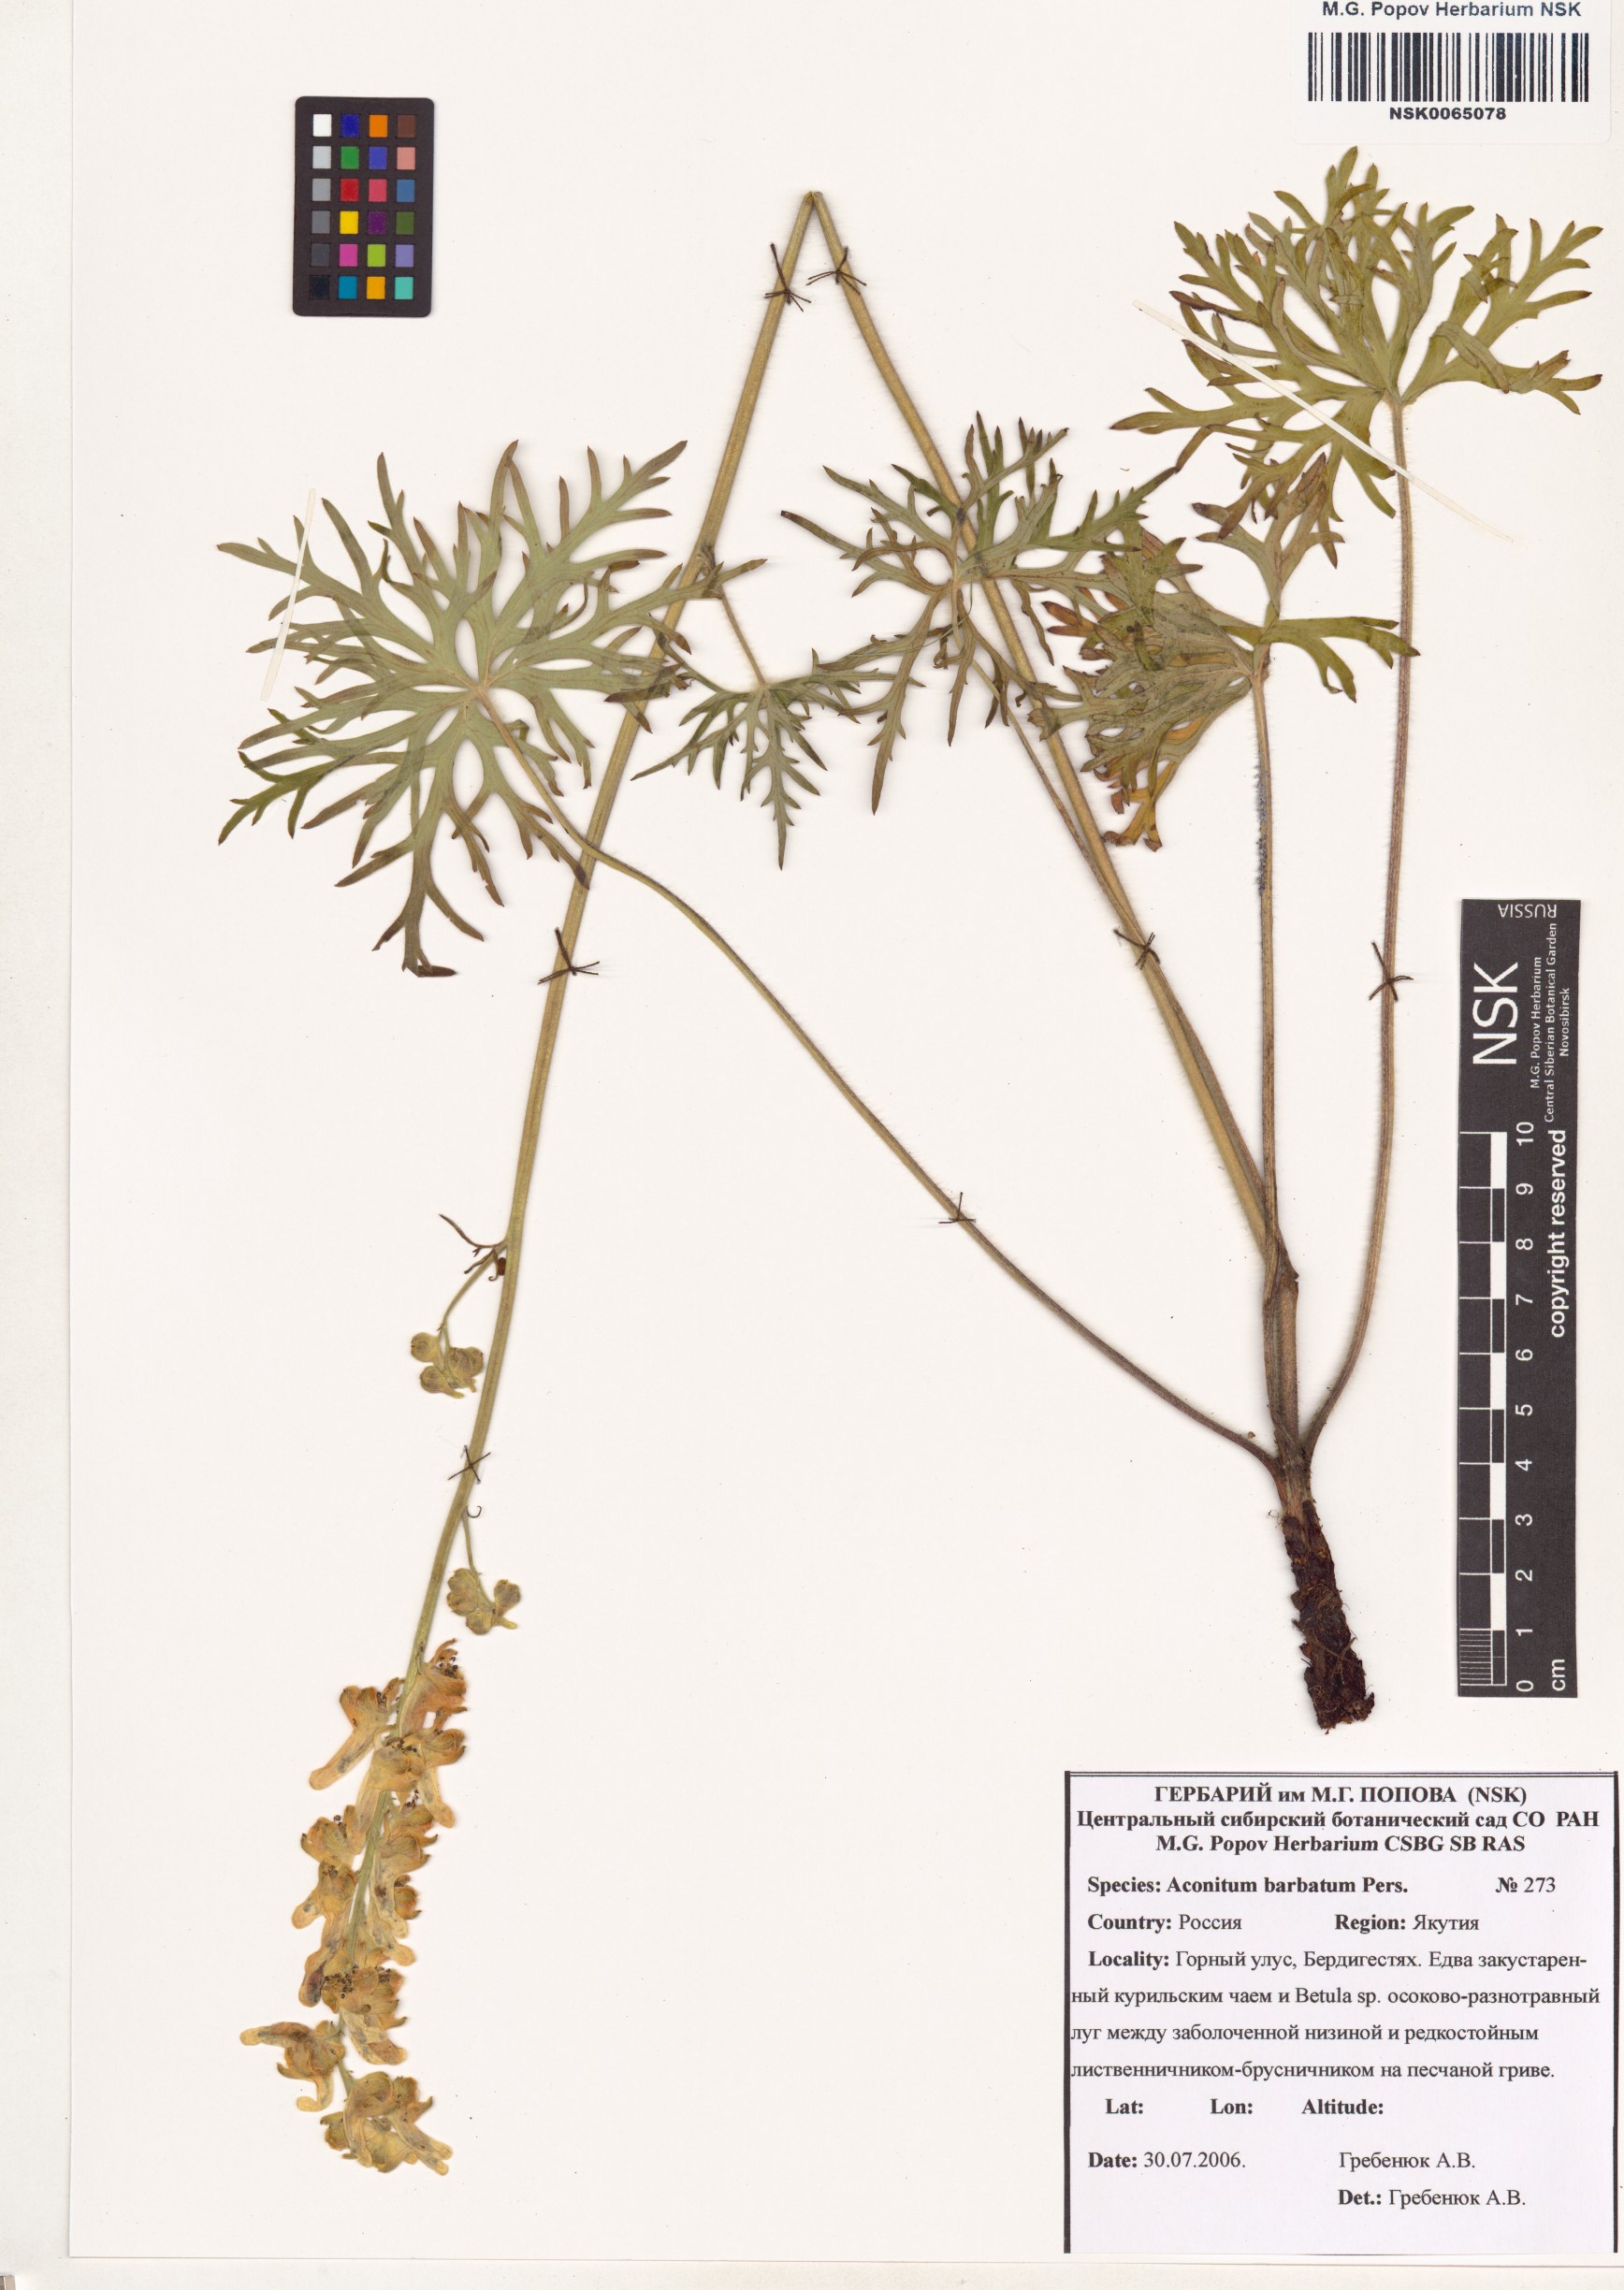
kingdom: Plantae
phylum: Tracheophyta
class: Magnoliopsida
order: Ranunculales
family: Ranunculaceae
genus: Aconitum
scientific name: Aconitum barbatum
